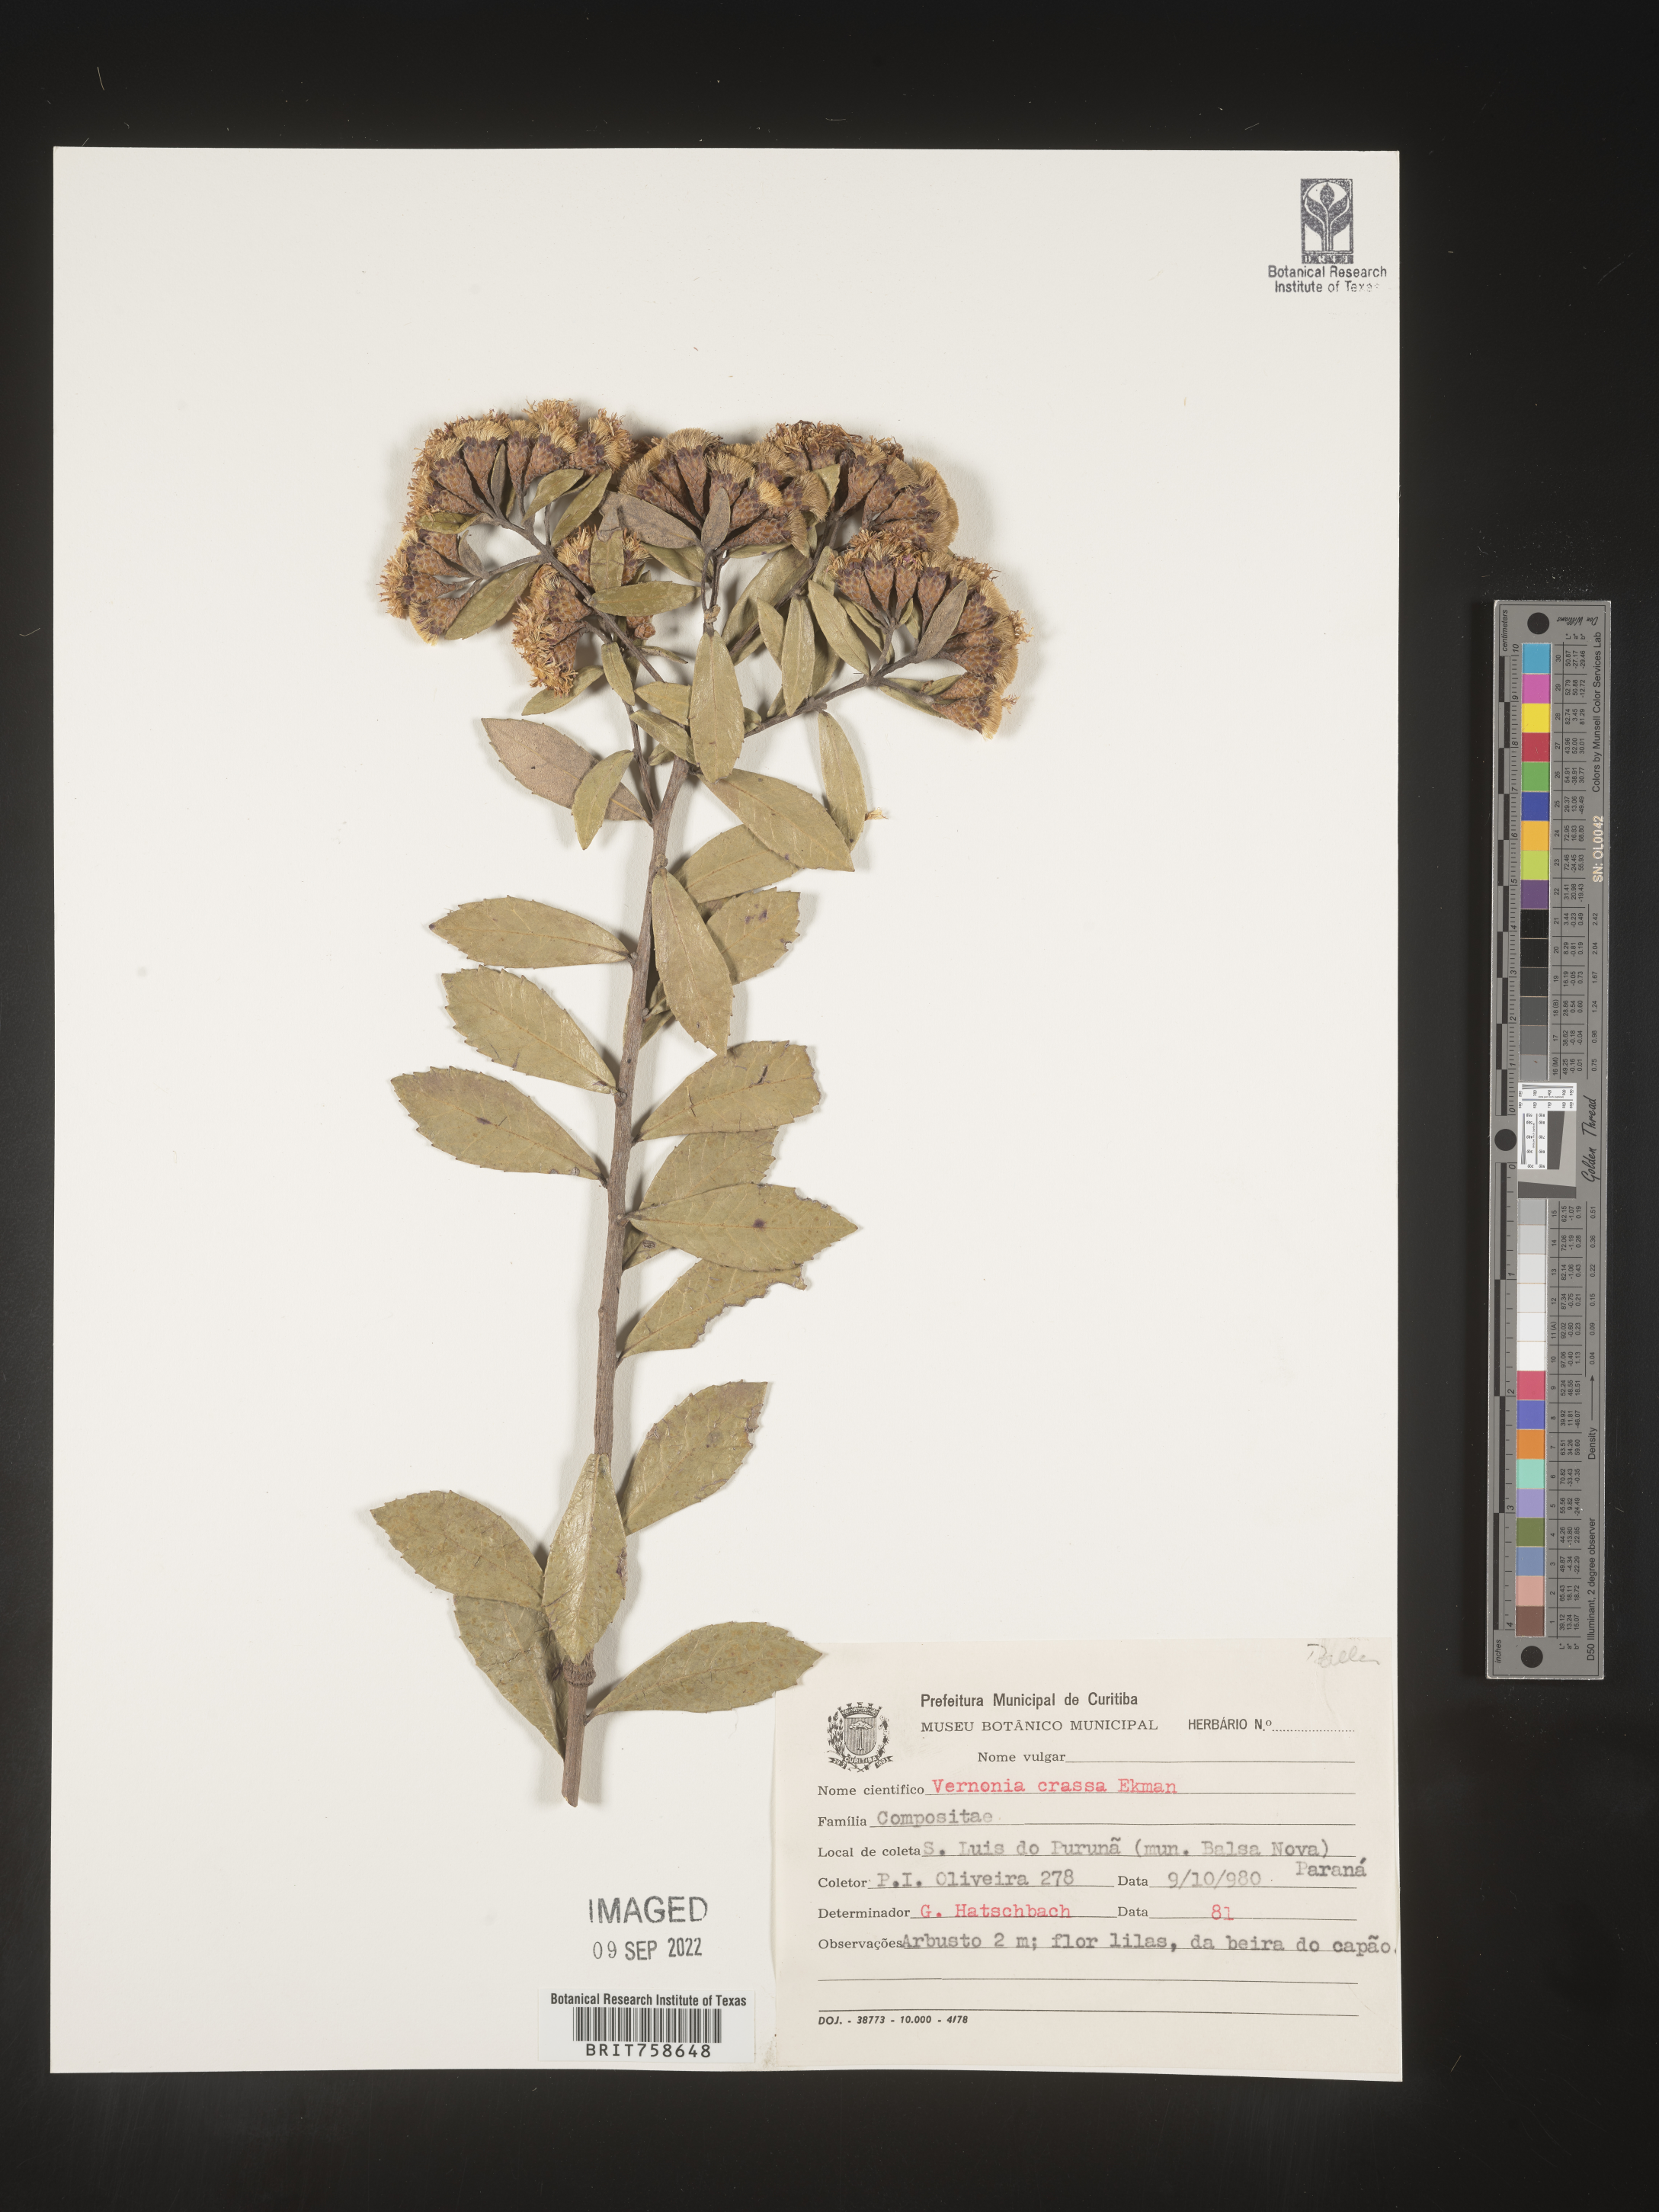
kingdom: Plantae
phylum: Tracheophyta
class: Magnoliopsida
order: Asterales
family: Asteraceae
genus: Vernonia
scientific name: Vernonia
